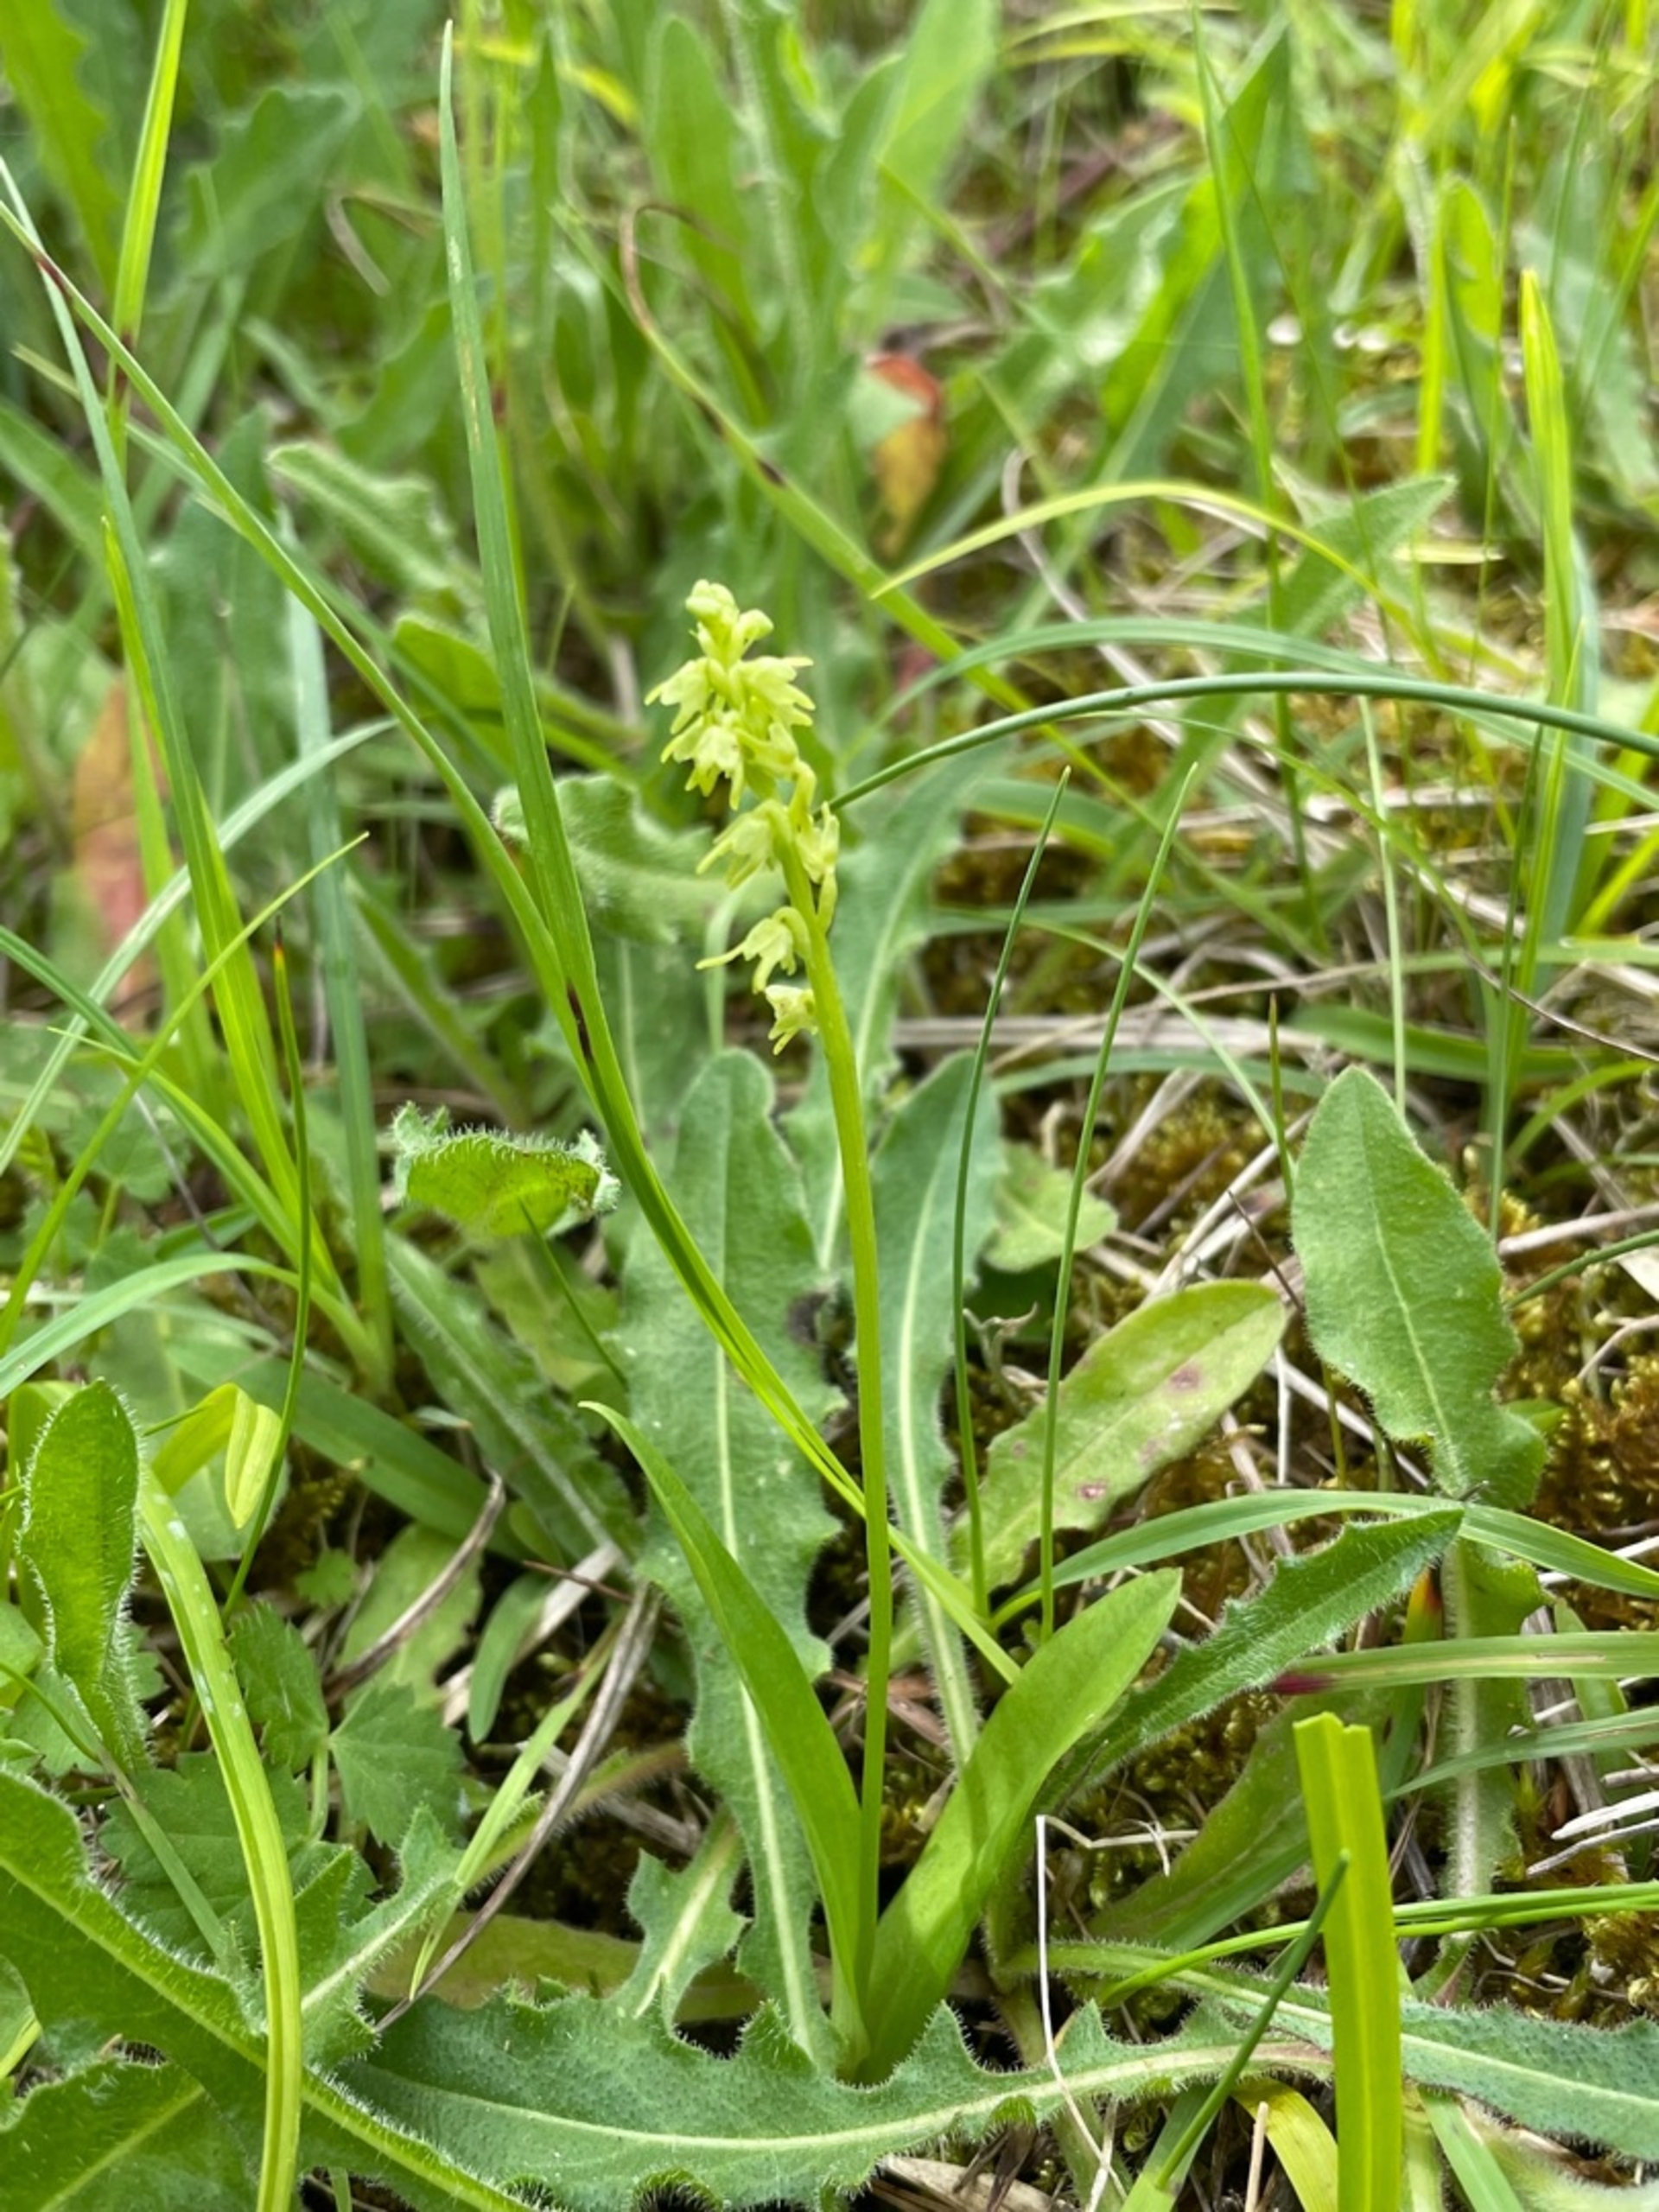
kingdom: Plantae
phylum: Tracheophyta
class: Liliopsida
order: Asparagales
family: Orchidaceae
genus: Herminium
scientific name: Herminium monorchis
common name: Pukkellæbe
